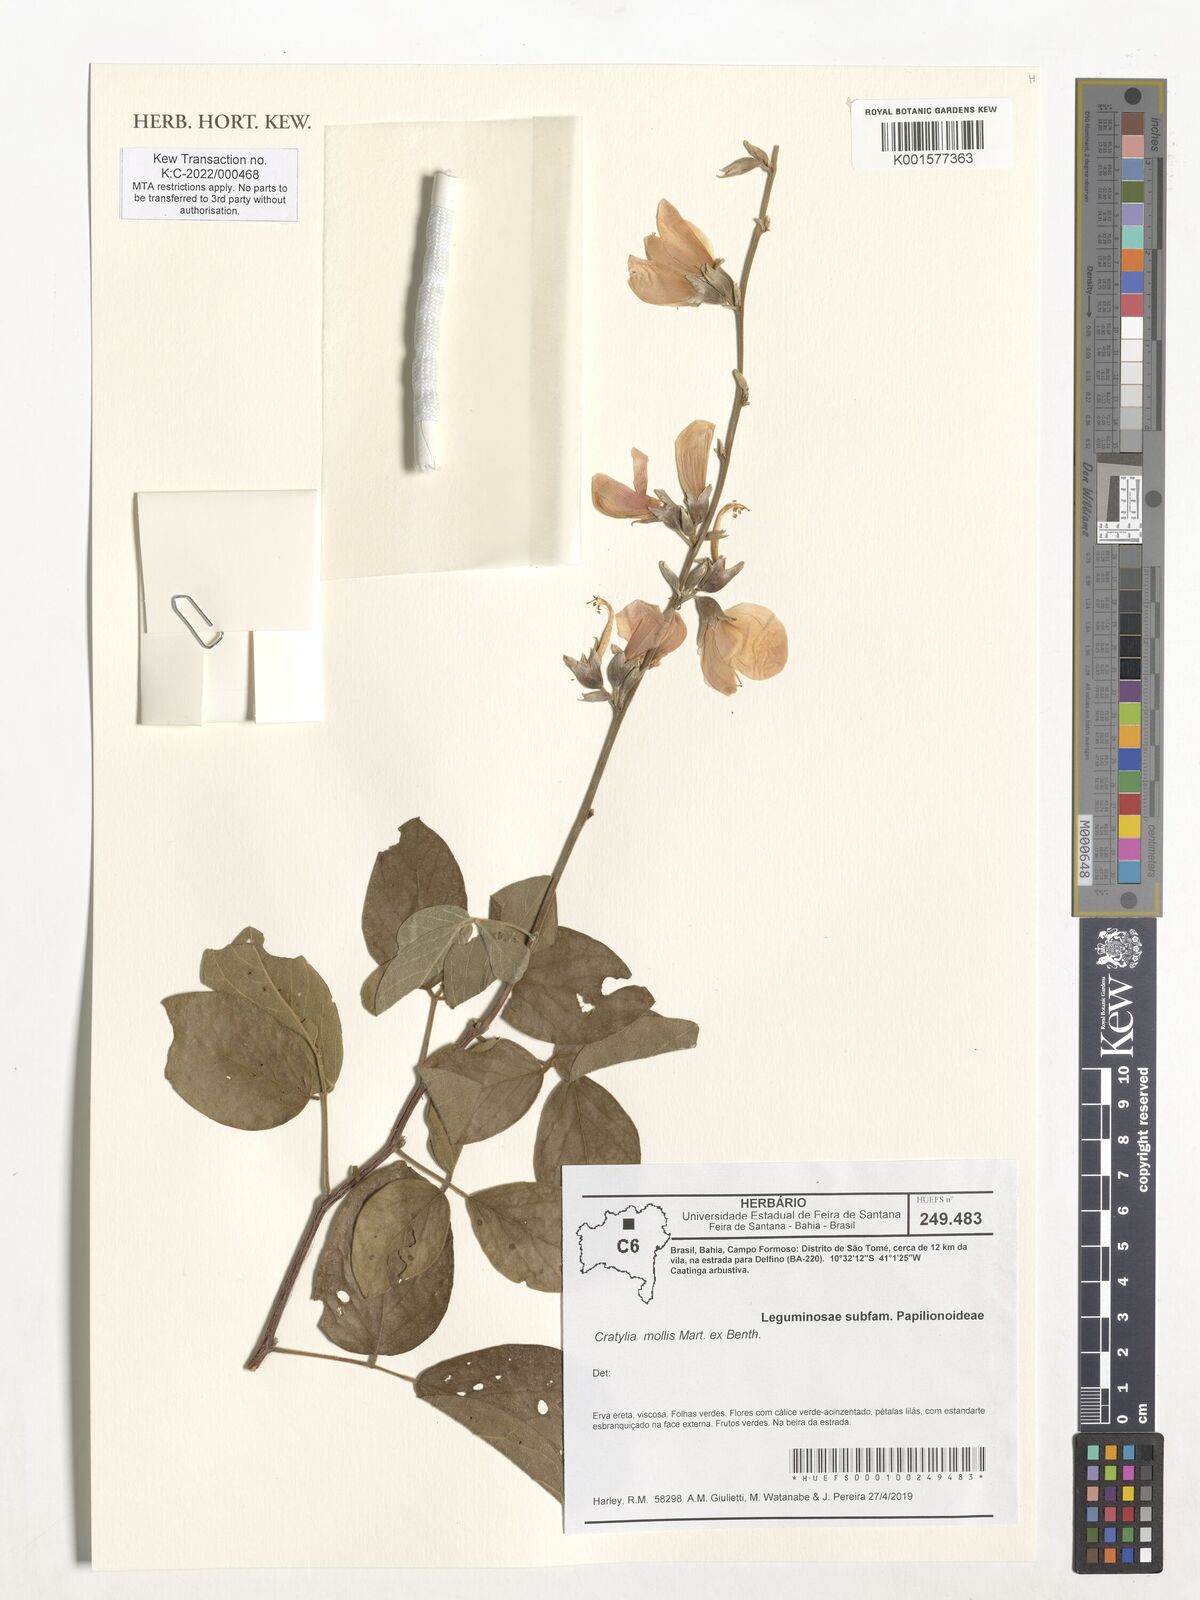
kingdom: Plantae
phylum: Tracheophyta
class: Magnoliopsida
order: Fabales
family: Fabaceae
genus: Cratylia
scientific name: Cratylia mollis
